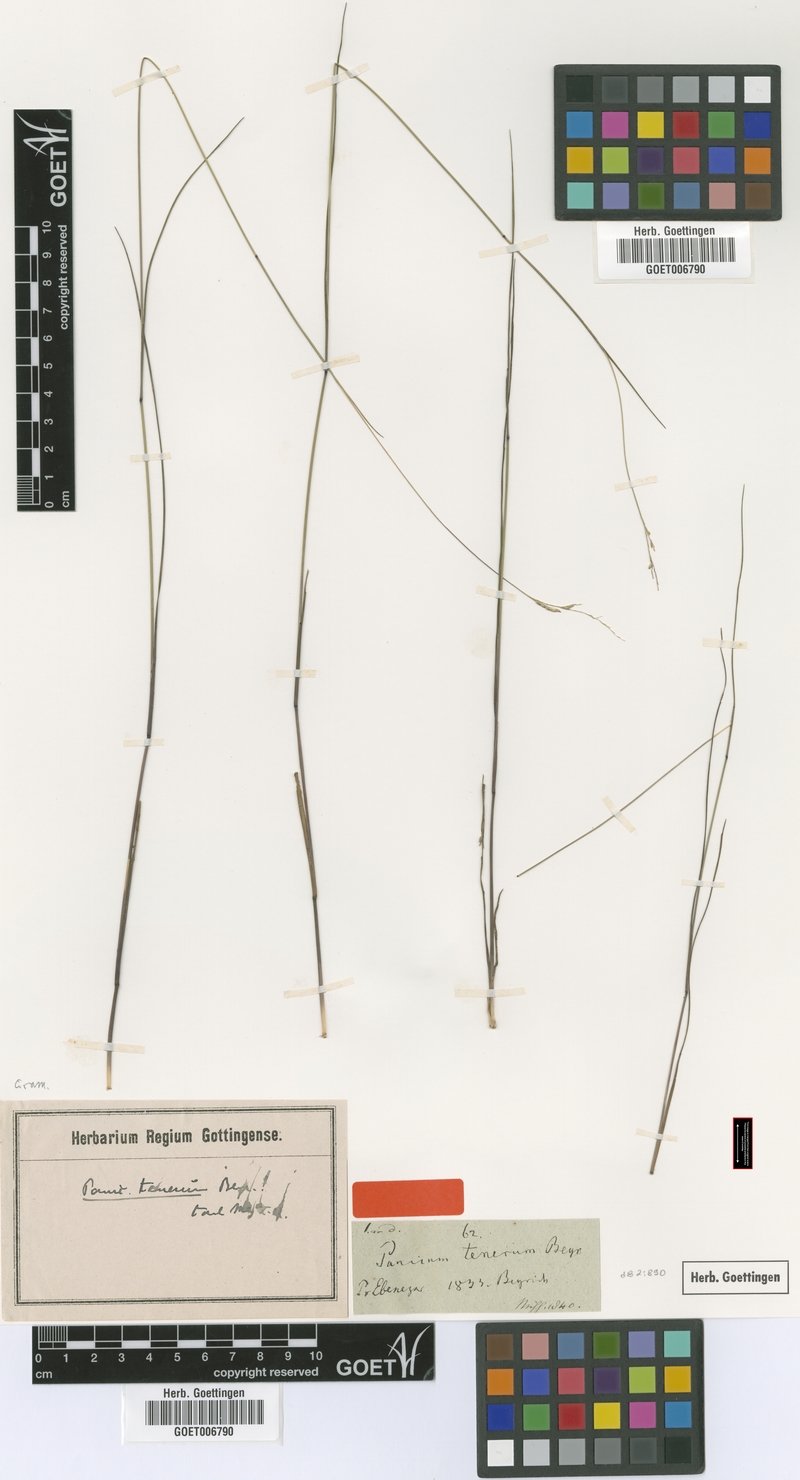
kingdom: Plantae
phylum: Tracheophyta
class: Liliopsida
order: Poales
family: Poaceae
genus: Coleataenia
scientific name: Coleataenia tenera
